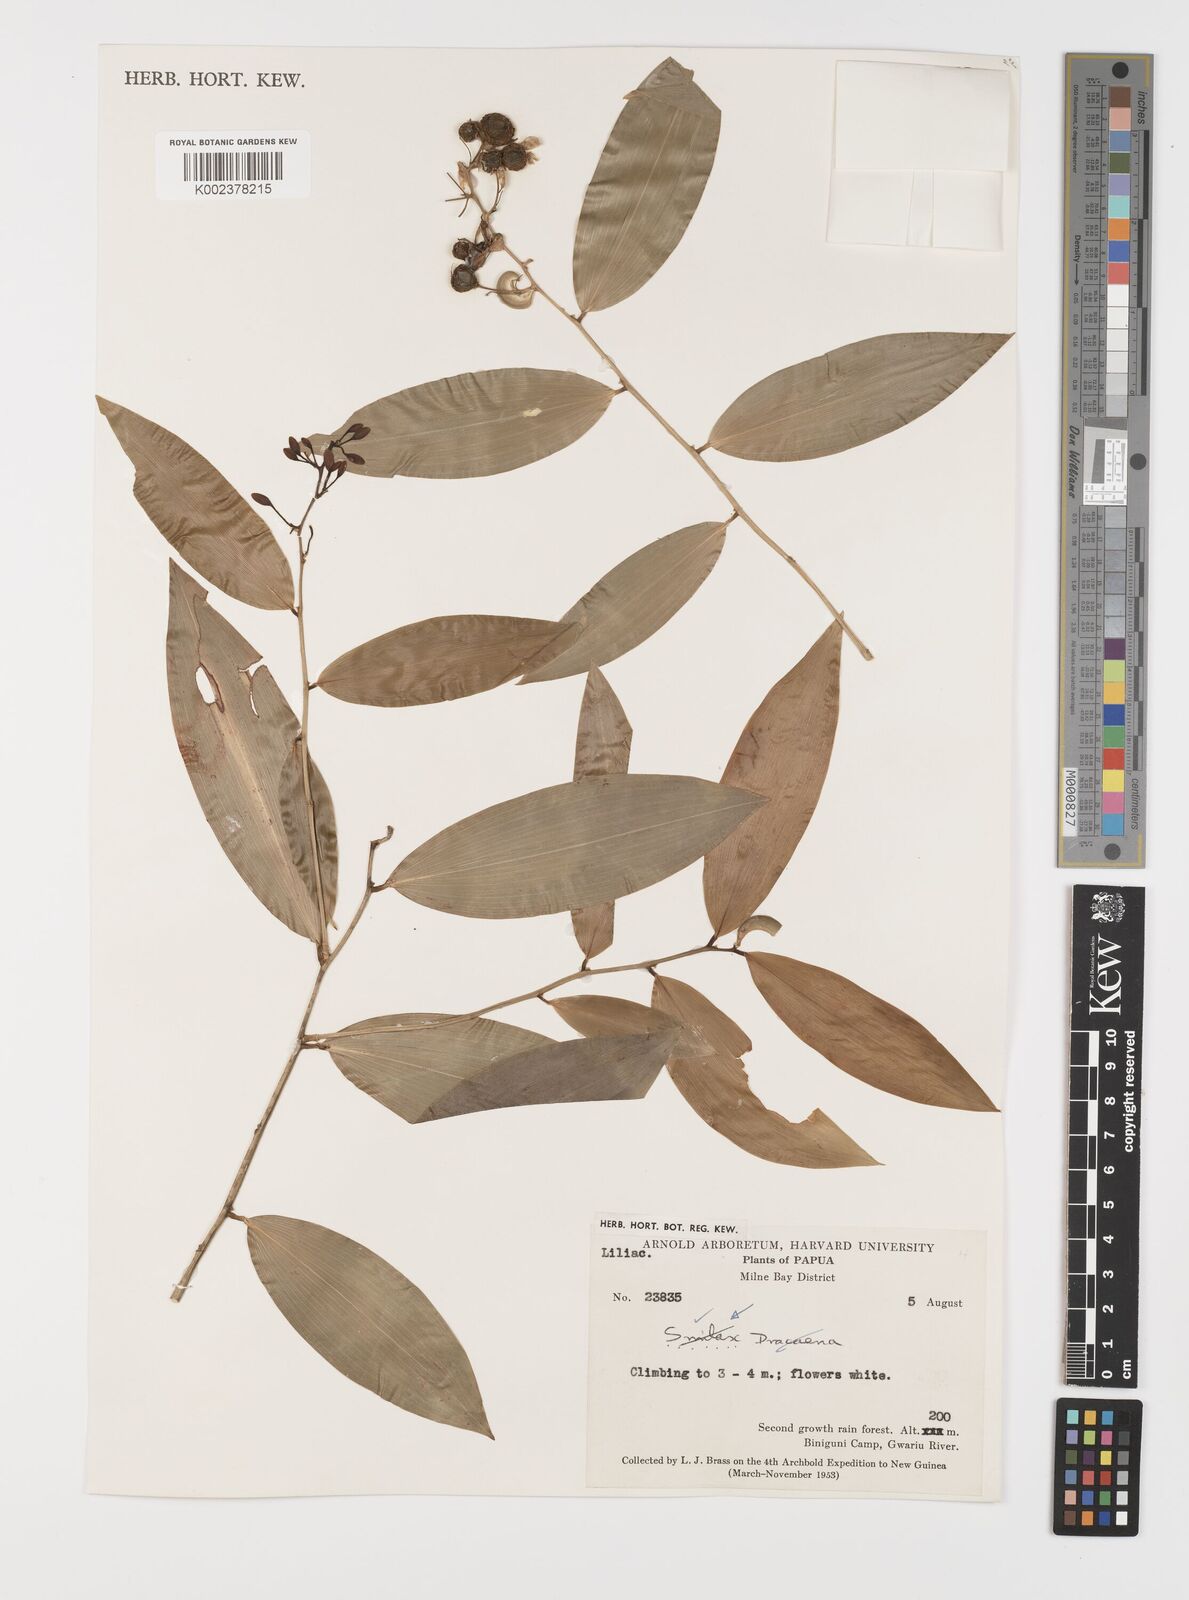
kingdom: Plantae
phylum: Tracheophyta
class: Liliopsida
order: Liliales
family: Smilacaceae
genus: Smilax
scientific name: Smilax
